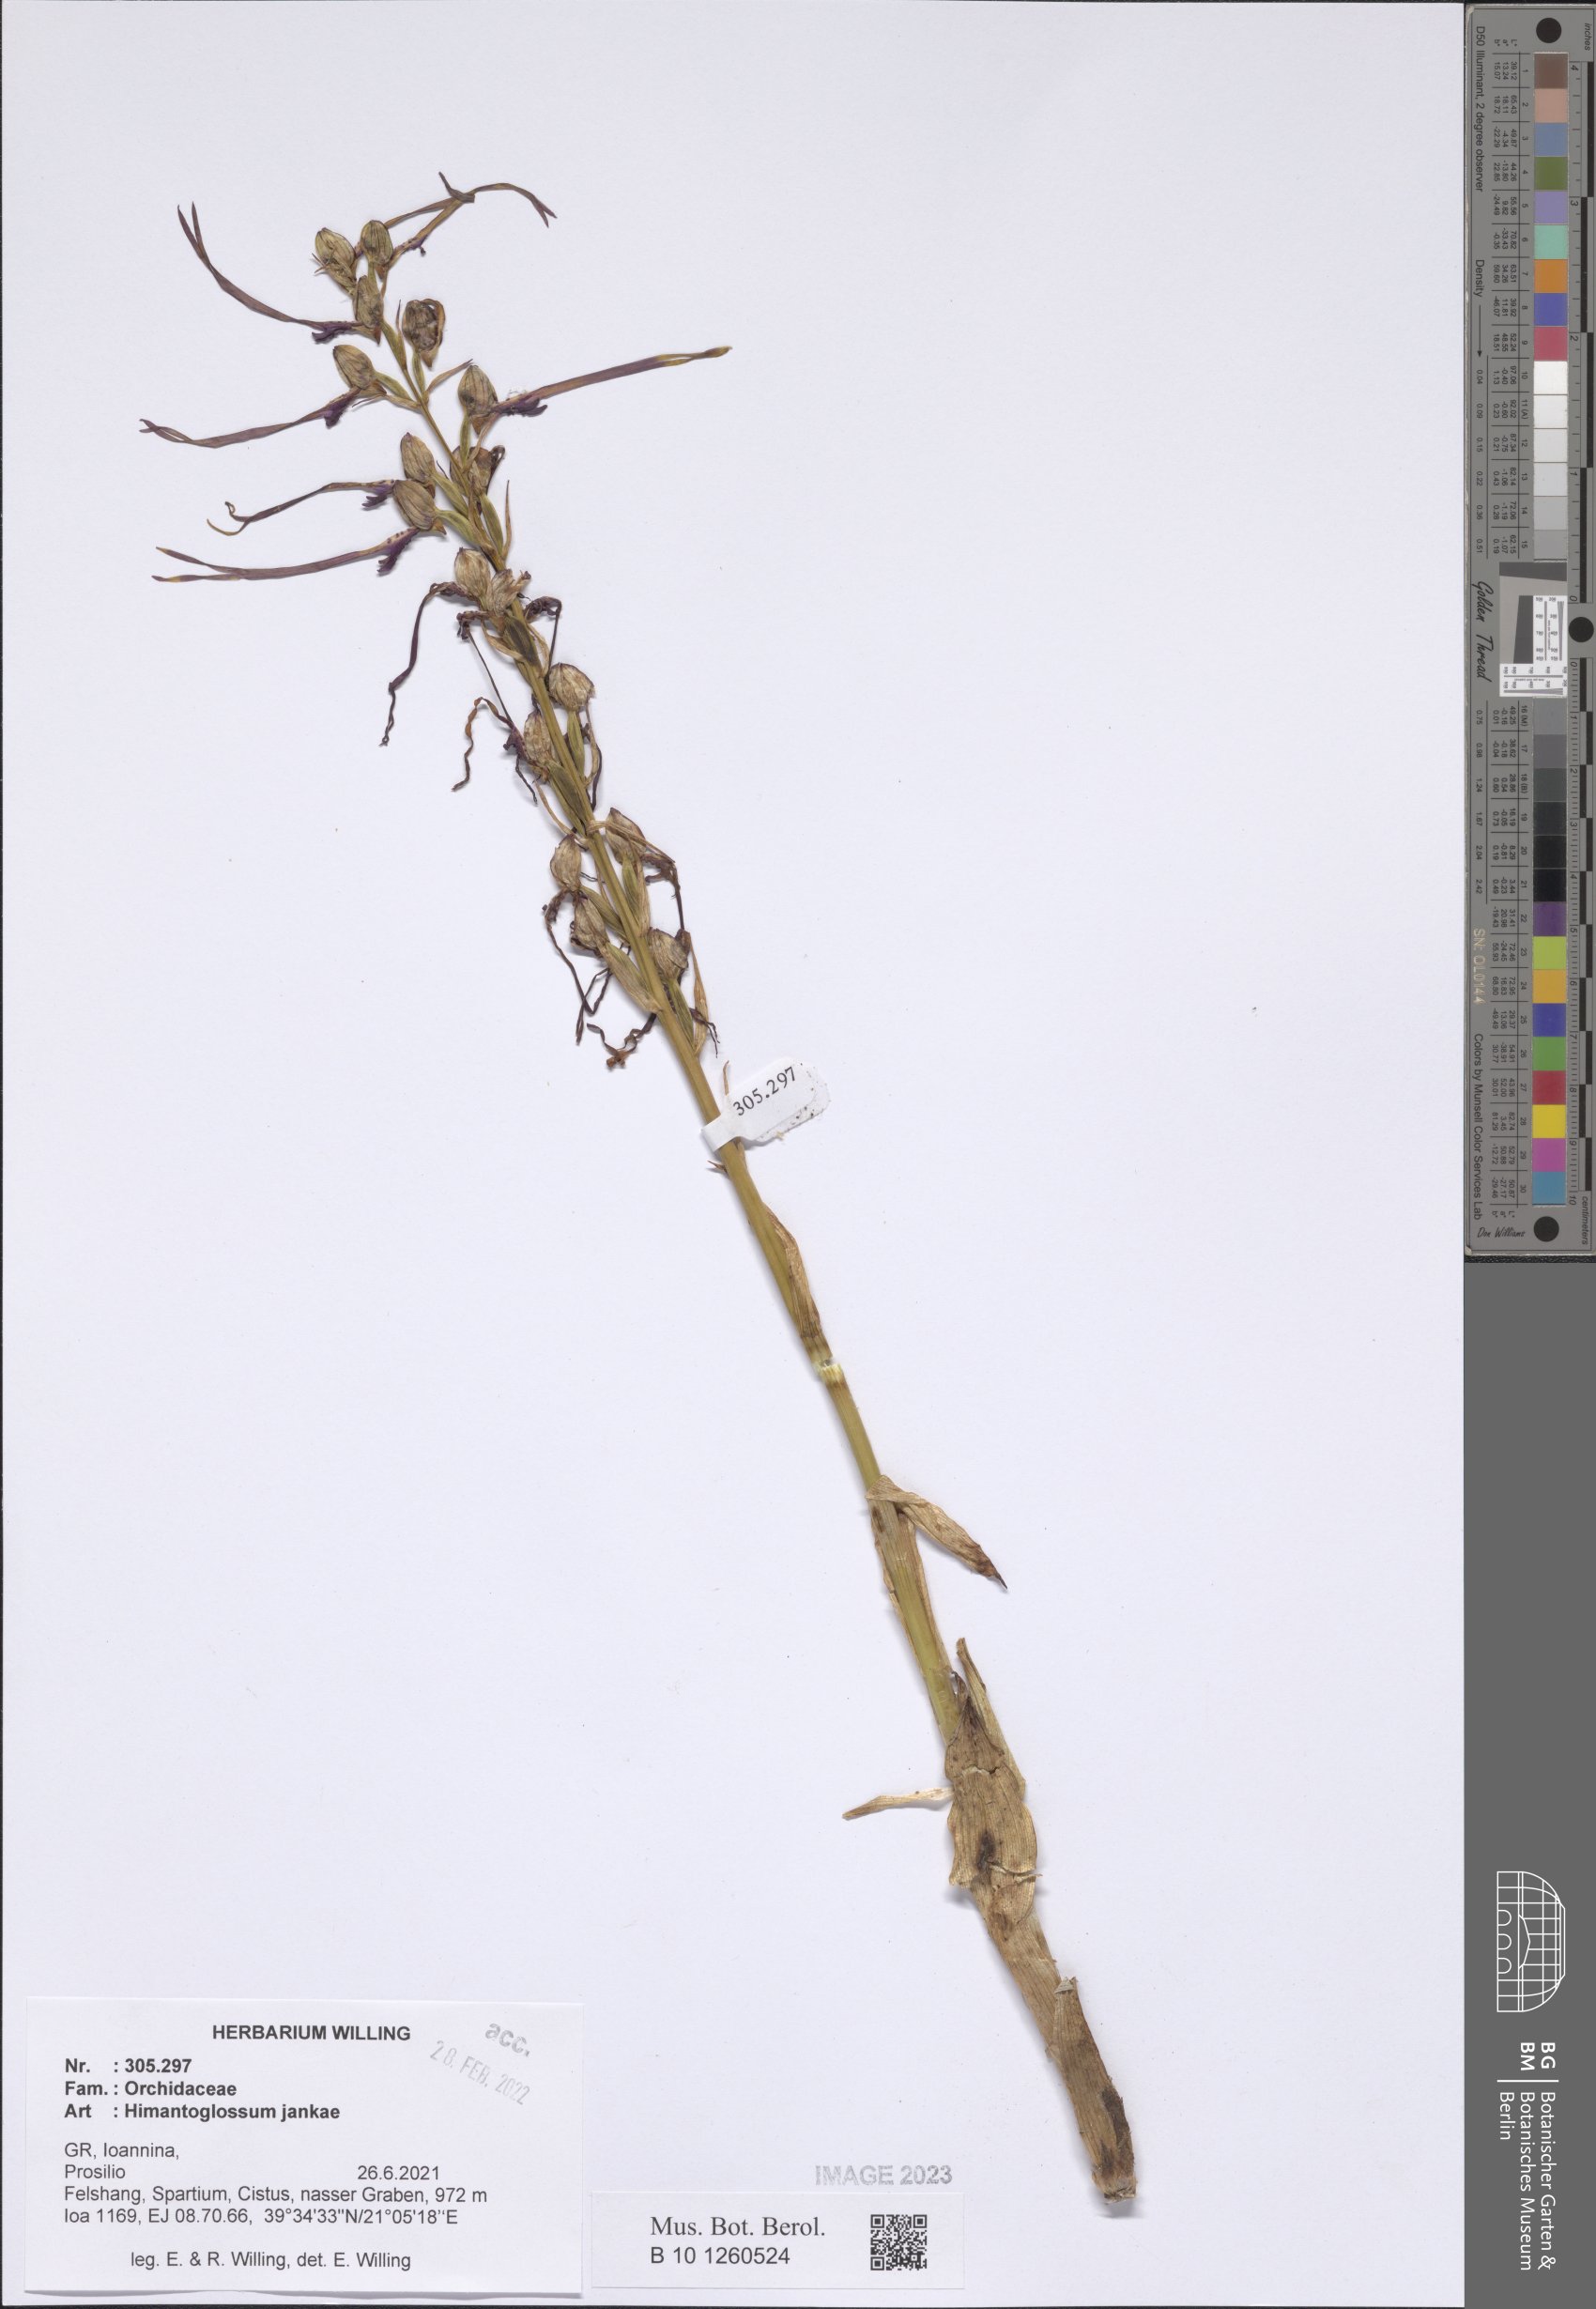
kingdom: Plantae
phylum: Tracheophyta
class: Liliopsida
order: Asparagales
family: Orchidaceae
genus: Himantoglossum
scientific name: Himantoglossum calcaratum
